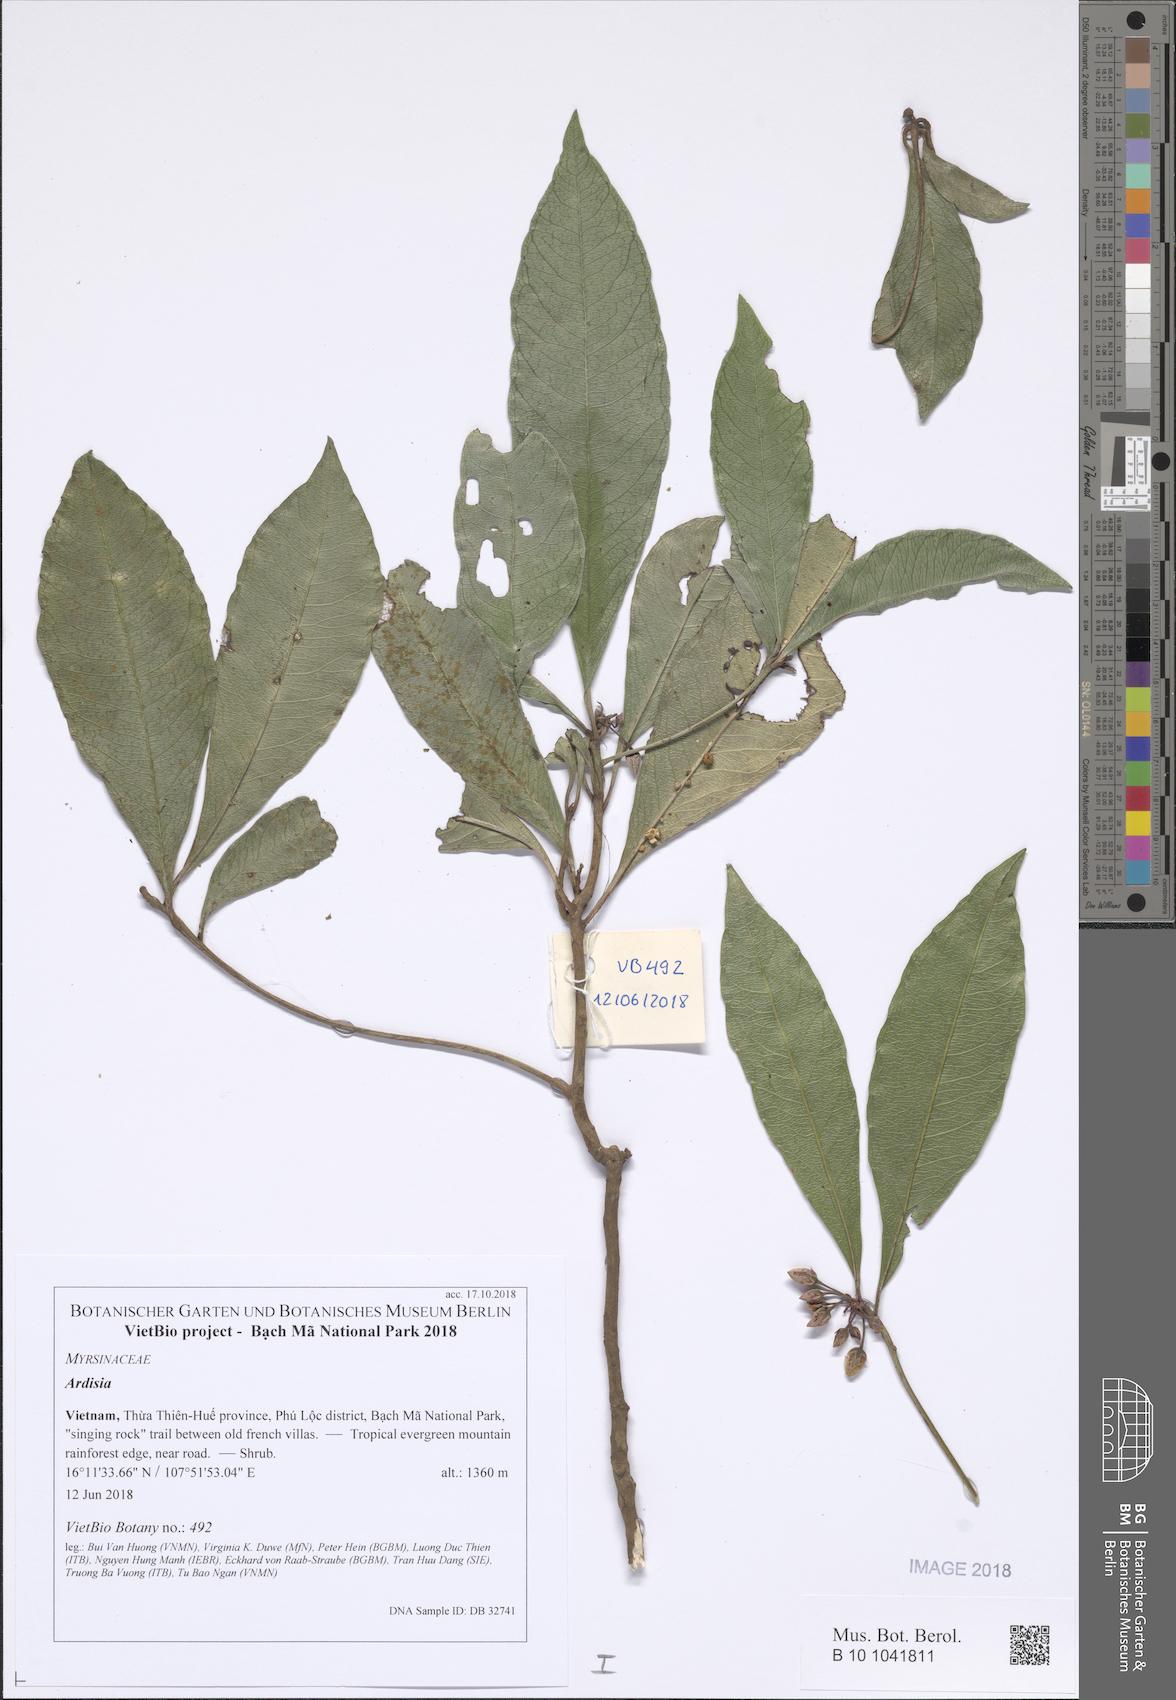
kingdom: Plantae
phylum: Tracheophyta
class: Magnoliopsida
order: Ericales
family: Primulaceae
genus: Ardisia
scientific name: Ardisia annamensis
